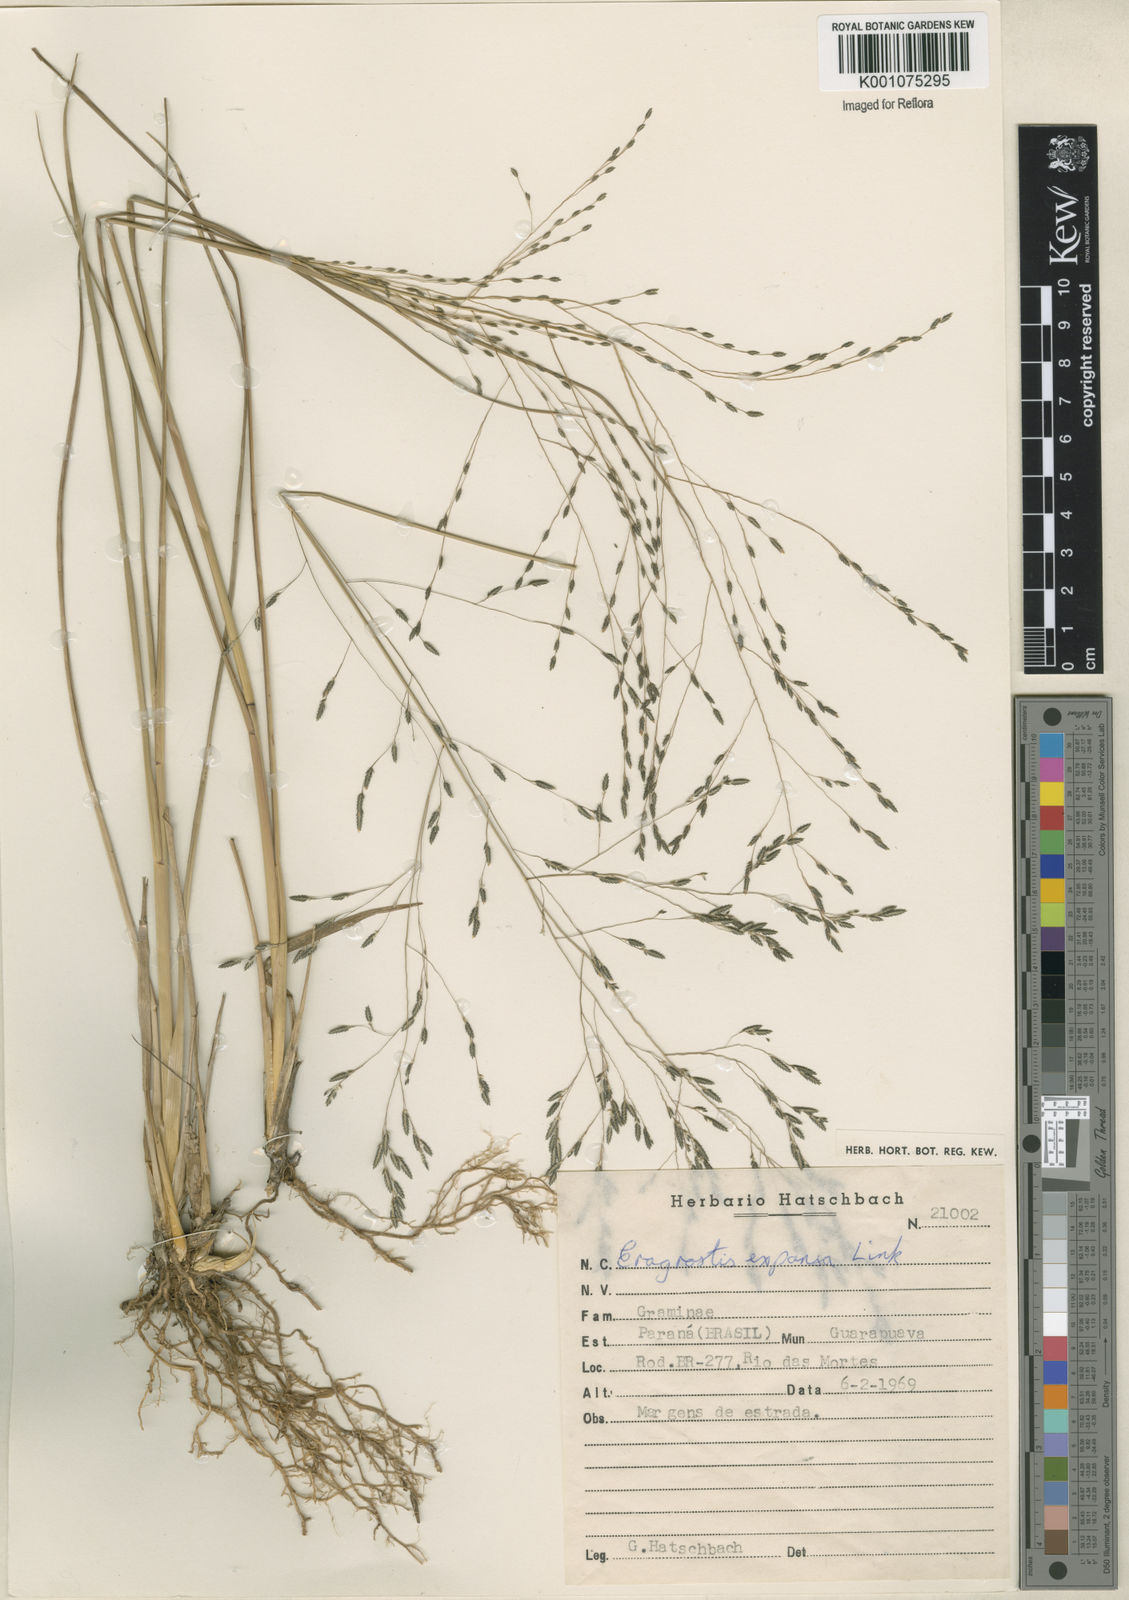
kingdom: Plantae
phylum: Tracheophyta
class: Liliopsida
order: Poales
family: Poaceae
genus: Eragrostis
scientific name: Eragrostis bahiensis
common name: Bahia lovegrass
